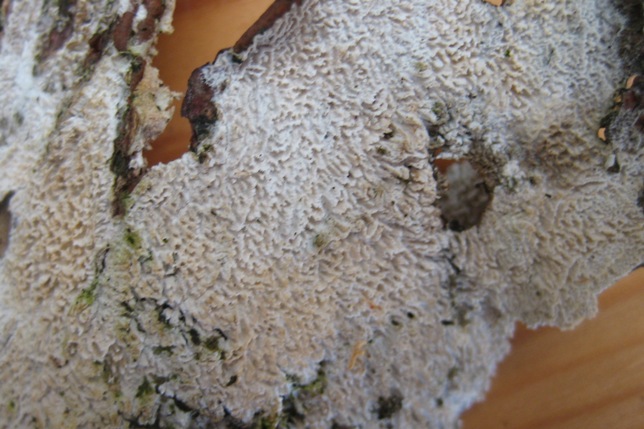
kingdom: Fungi
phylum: Basidiomycota
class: Agaricomycetes
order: Hymenochaetales
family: Schizoporaceae
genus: Schizopora
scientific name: Schizopora paradoxa
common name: hvid tandsvamp
